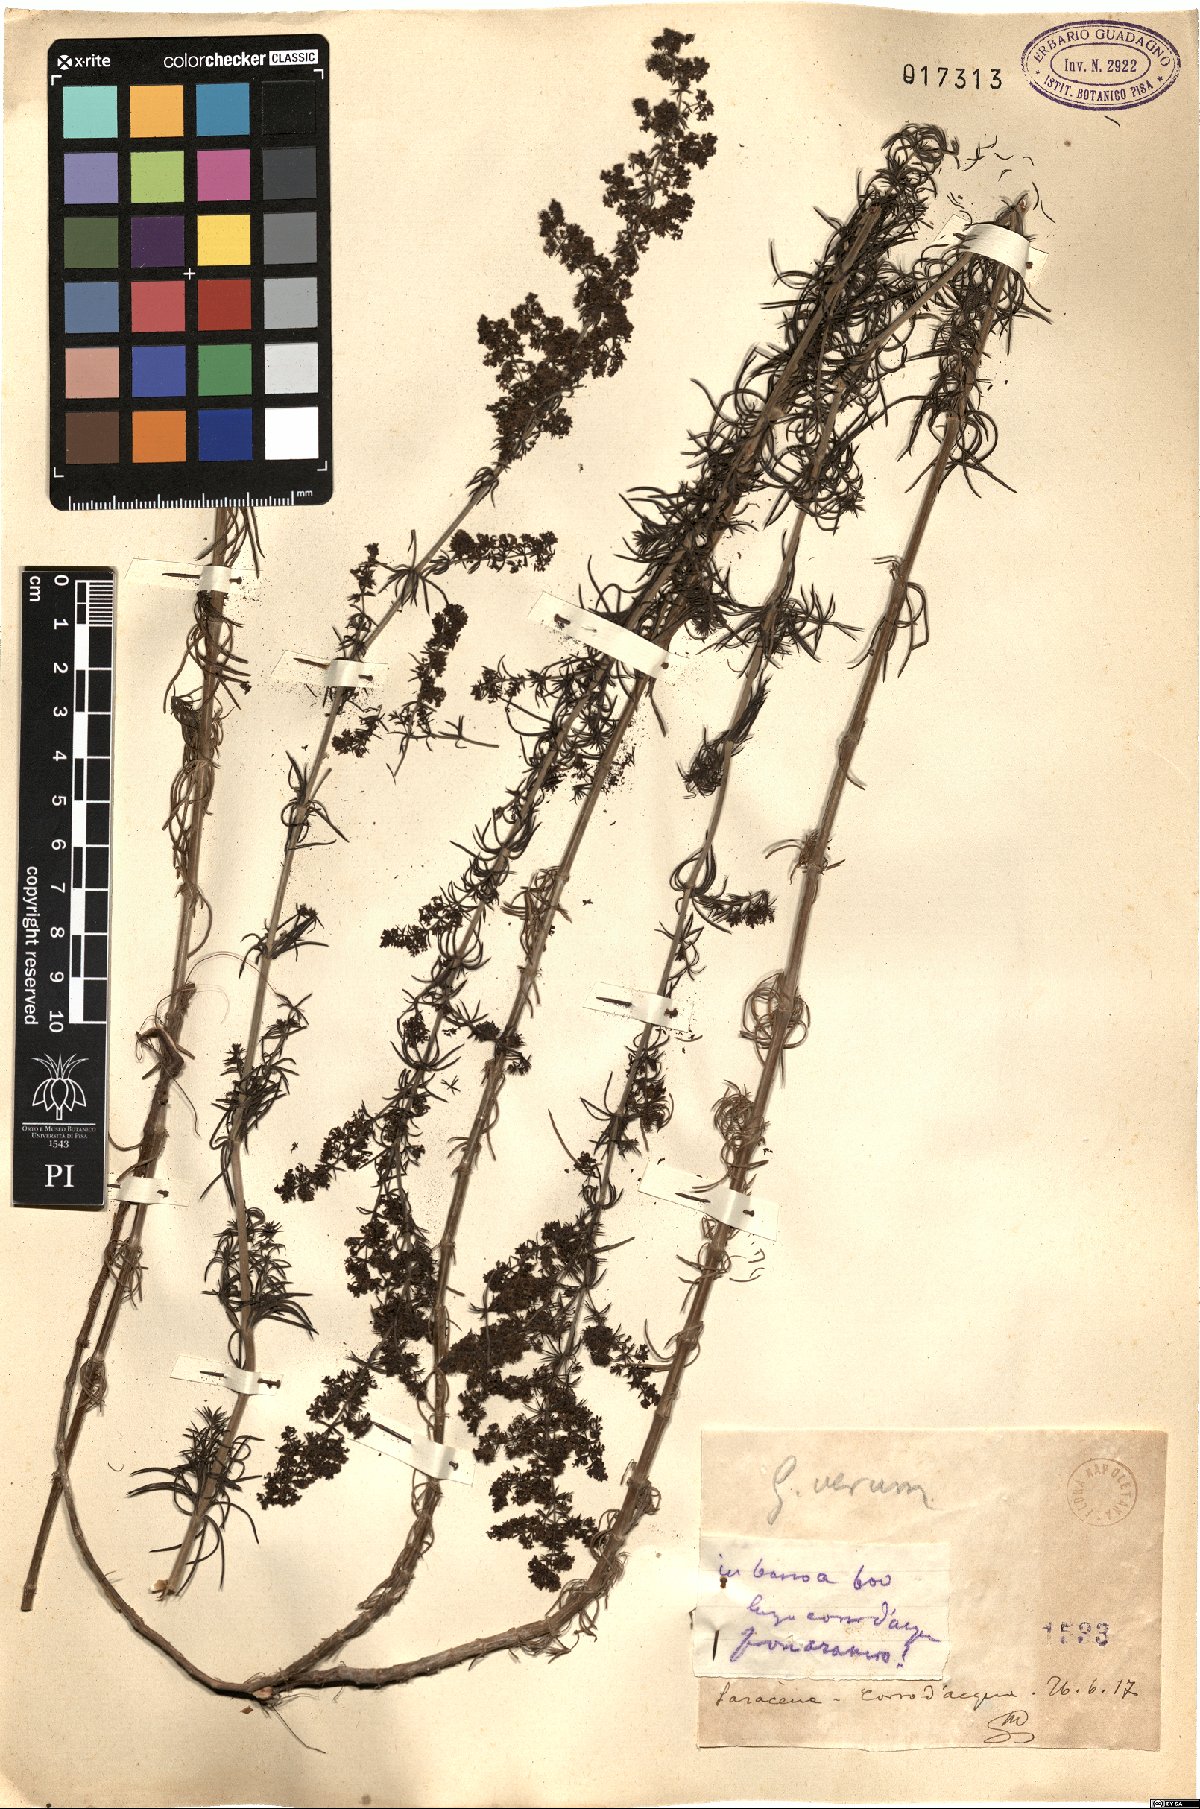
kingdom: Plantae
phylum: Tracheophyta
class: Magnoliopsida
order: Gentianales
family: Rubiaceae
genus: Galium
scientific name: Galium verum
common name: Lady's bedstraw
